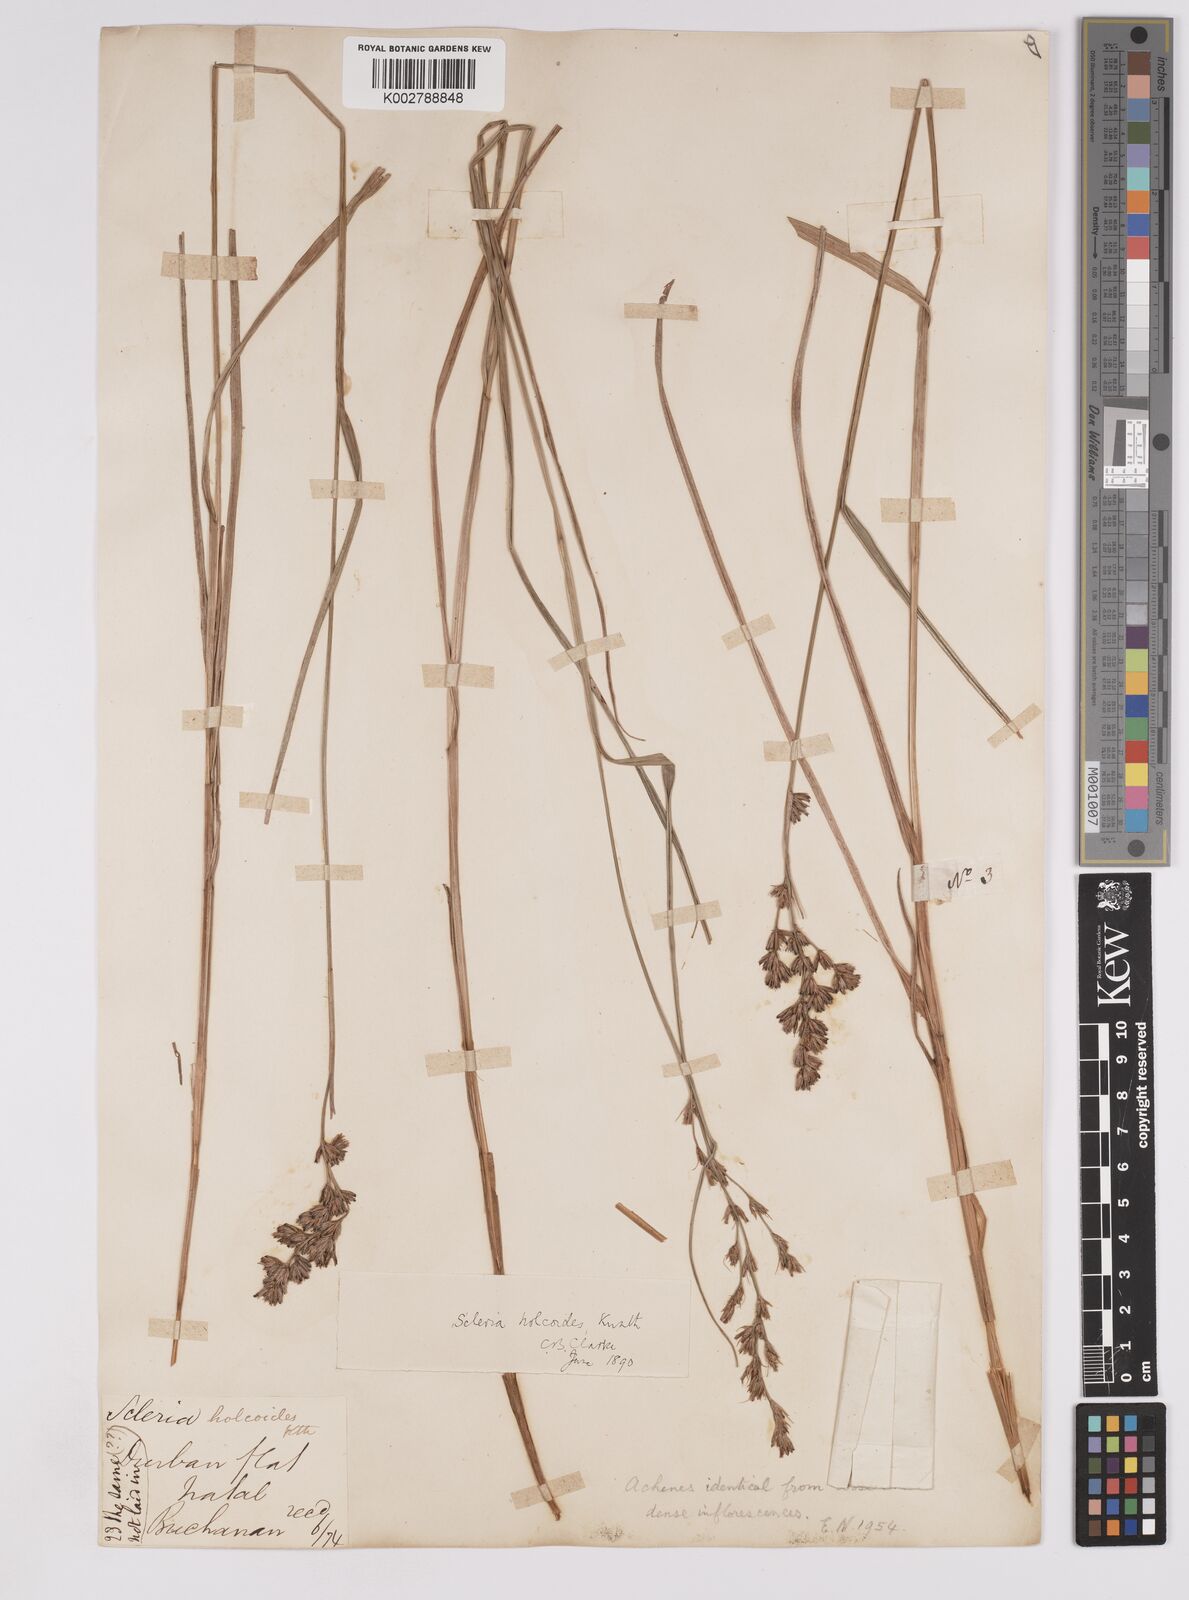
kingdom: Plantae
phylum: Tracheophyta
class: Liliopsida
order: Poales
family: Cyperaceae
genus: Scleria
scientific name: Scleria dregeana
